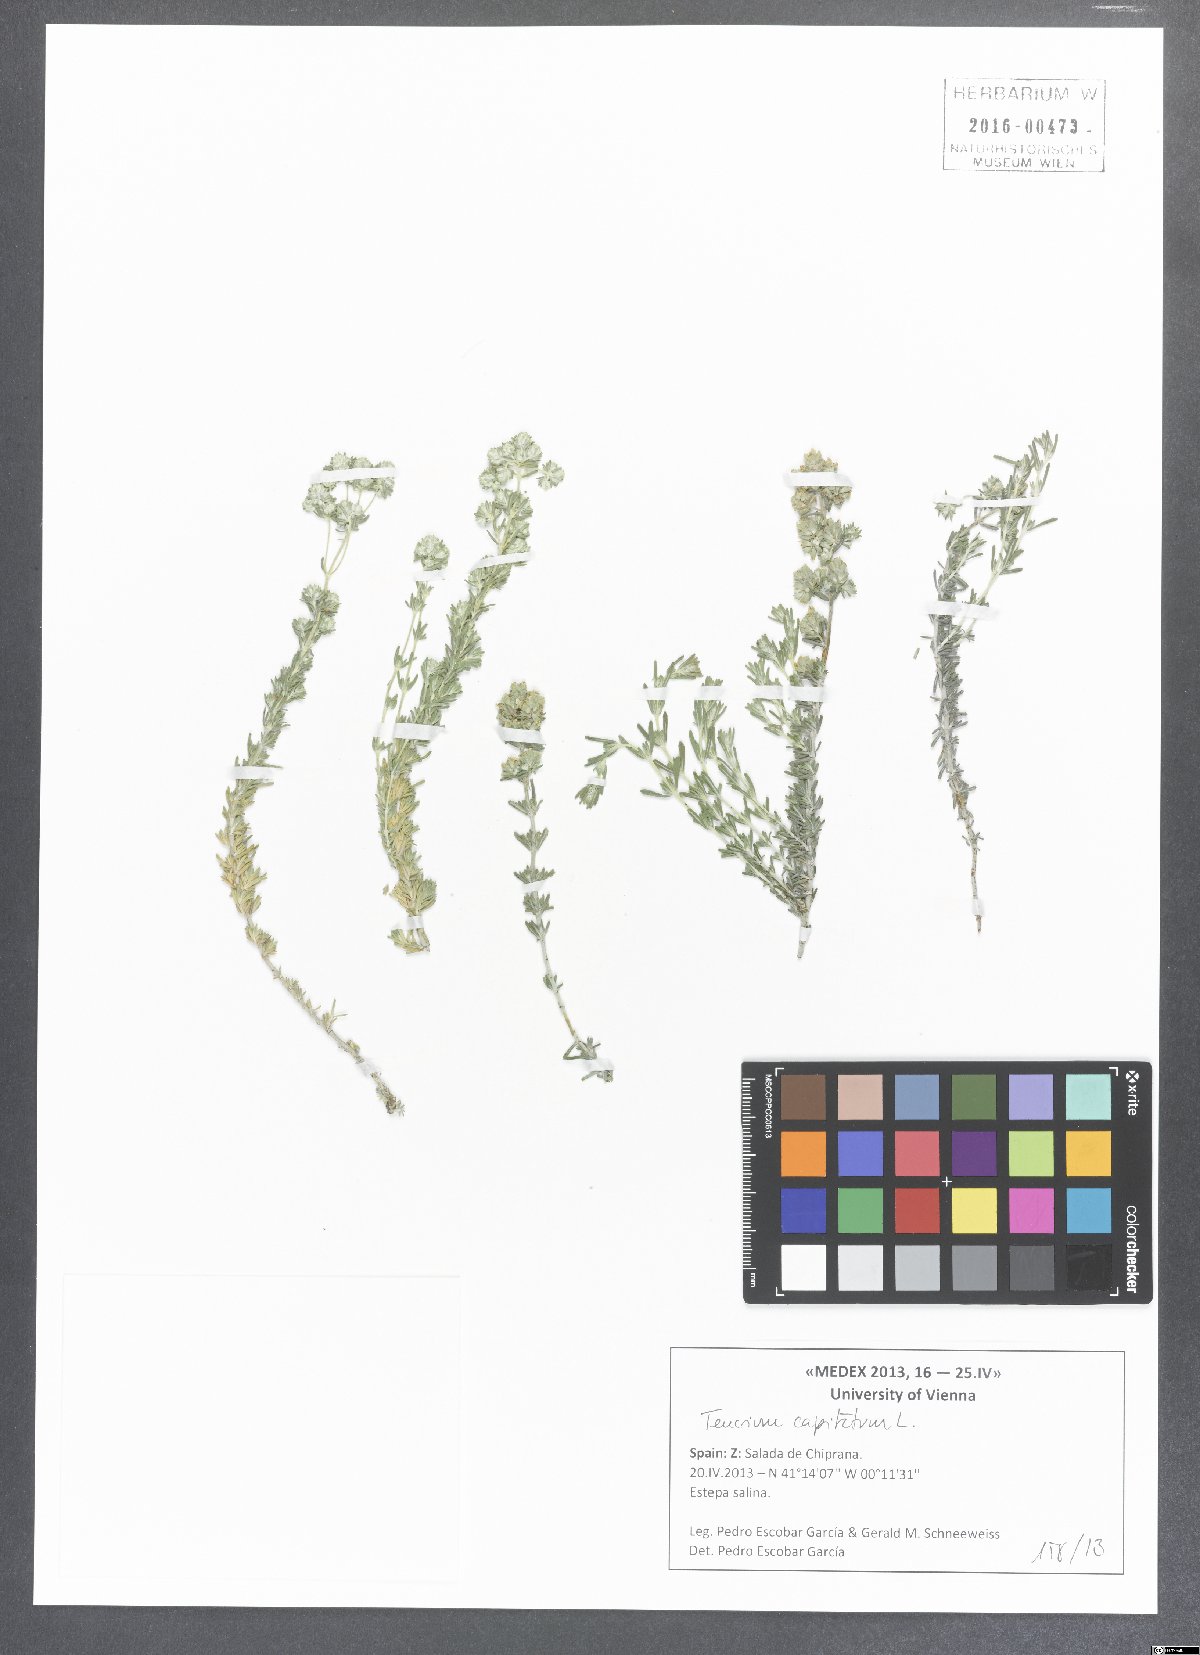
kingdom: Plantae
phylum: Tracheophyta
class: Magnoliopsida
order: Lamiales
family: Lamiaceae
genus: Teucrium
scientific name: Teucrium capitatum
